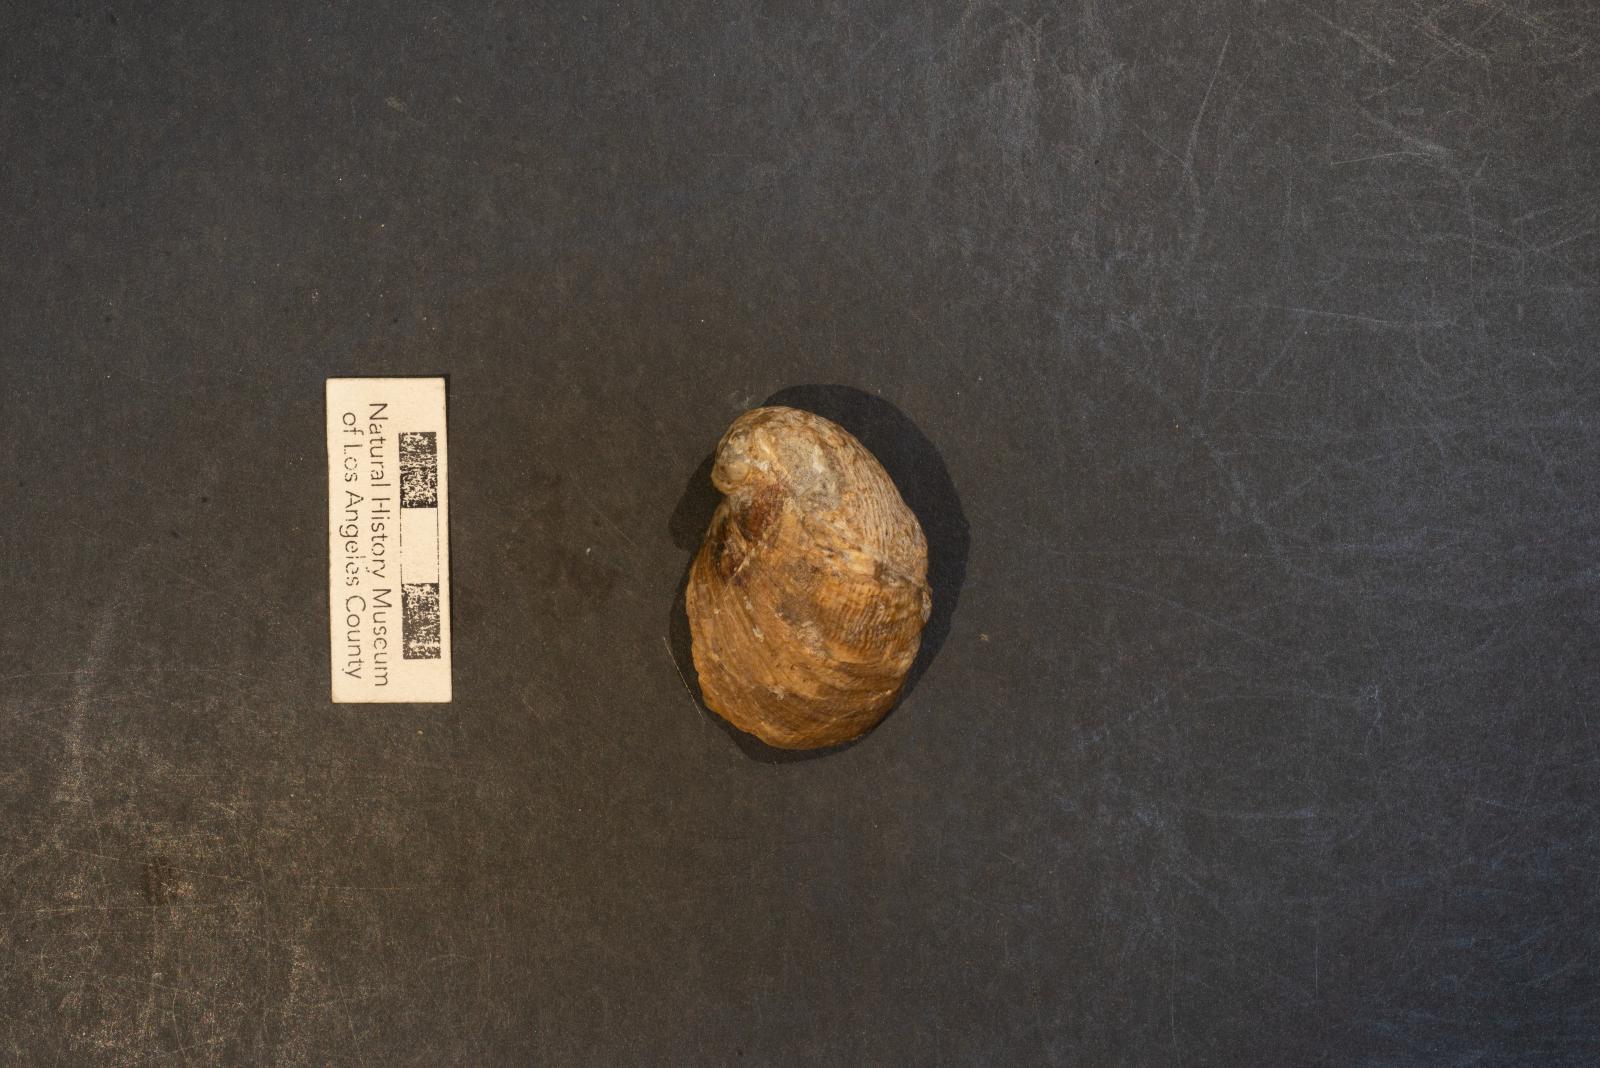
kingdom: Animalia
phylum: Mollusca
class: Gastropoda
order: Littorinimorpha
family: Calyptraeidae
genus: Lysis
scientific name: Lysis Stomatia suciensis
